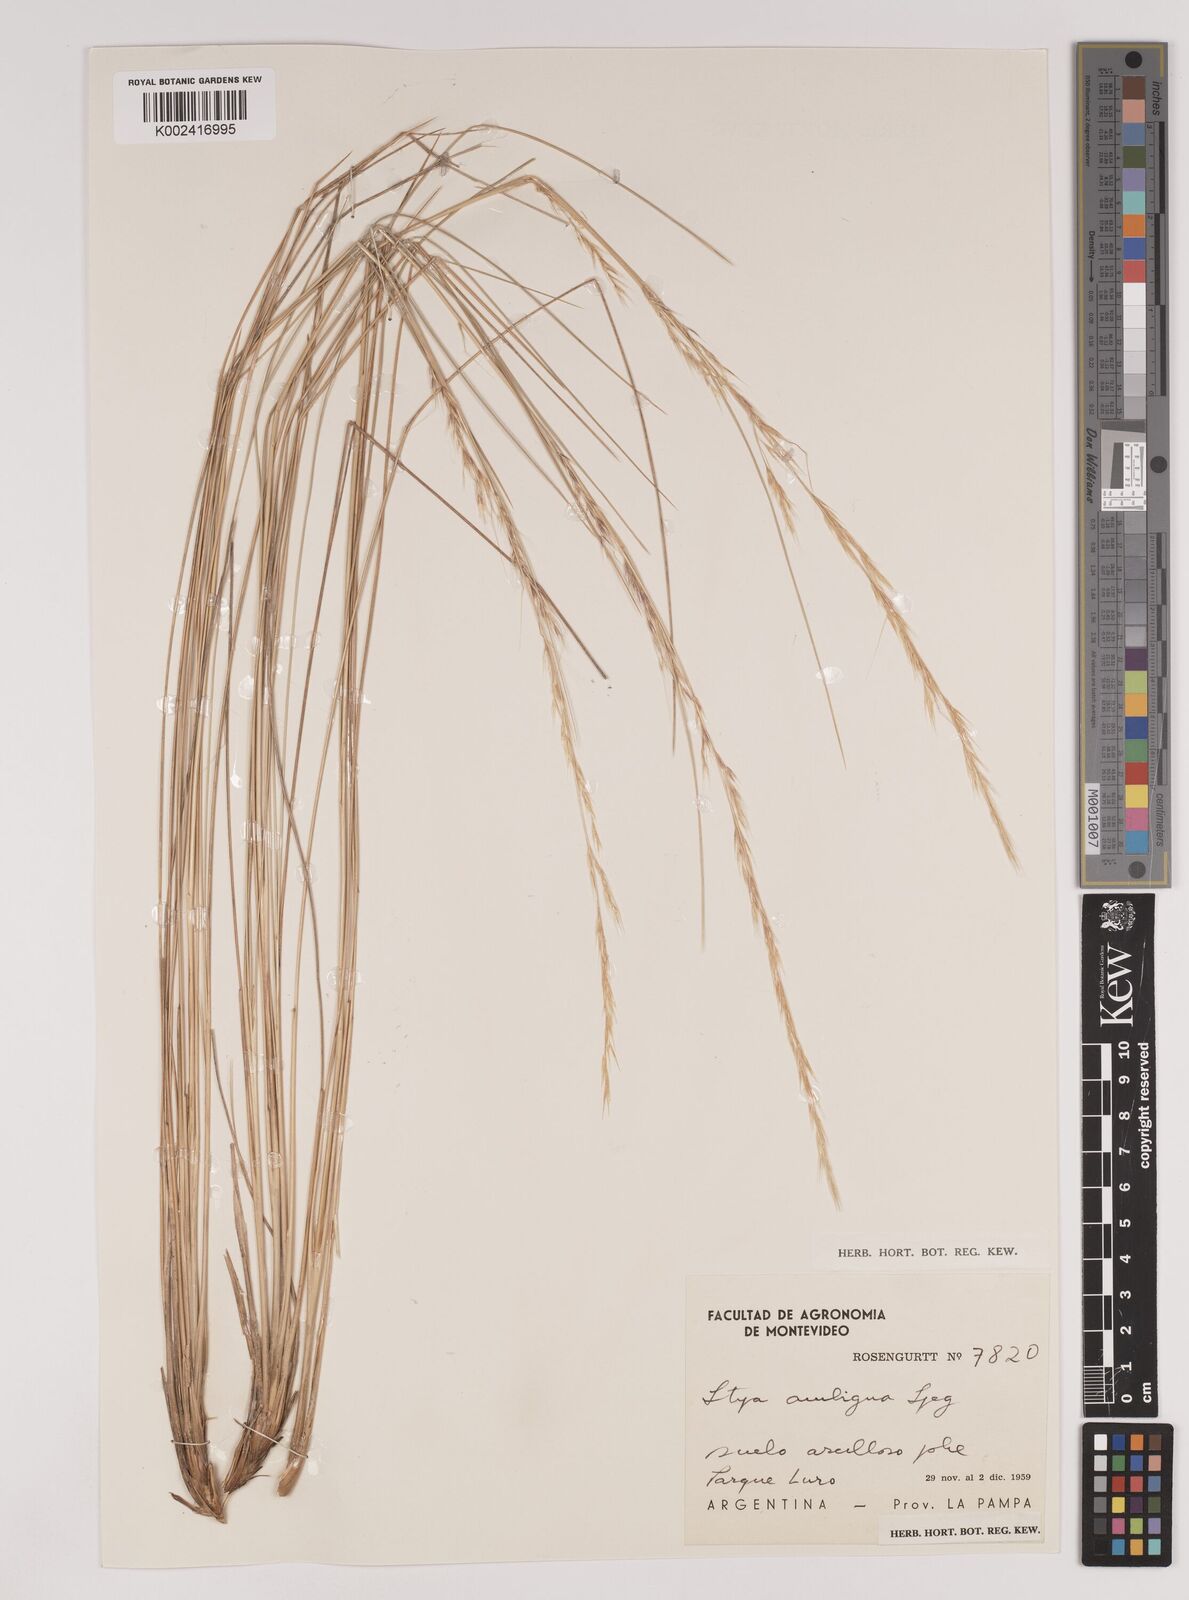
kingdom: Plantae
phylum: Tracheophyta
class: Liliopsida
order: Poales
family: Poaceae
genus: Amelichloa
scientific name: Amelichloa ambigua
